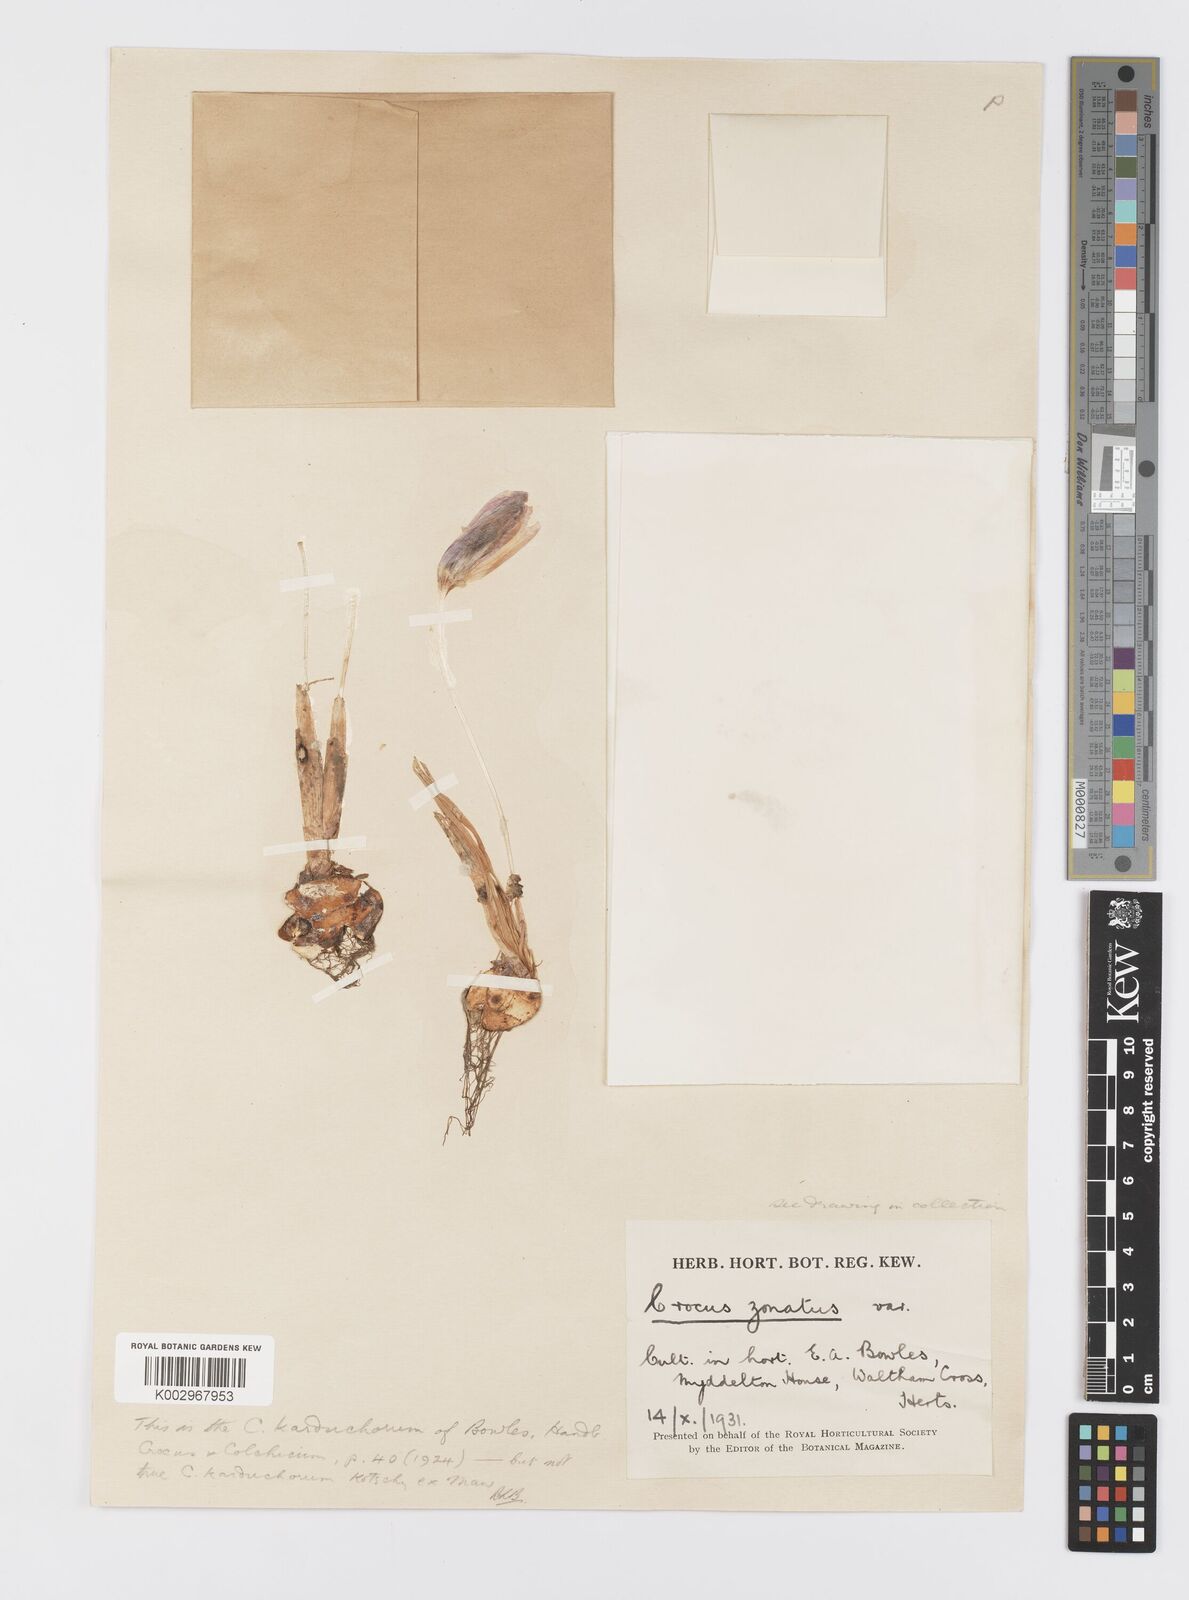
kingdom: Plantae
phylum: Tracheophyta
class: Liliopsida
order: Asparagales
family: Iridaceae
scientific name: Iridaceae
